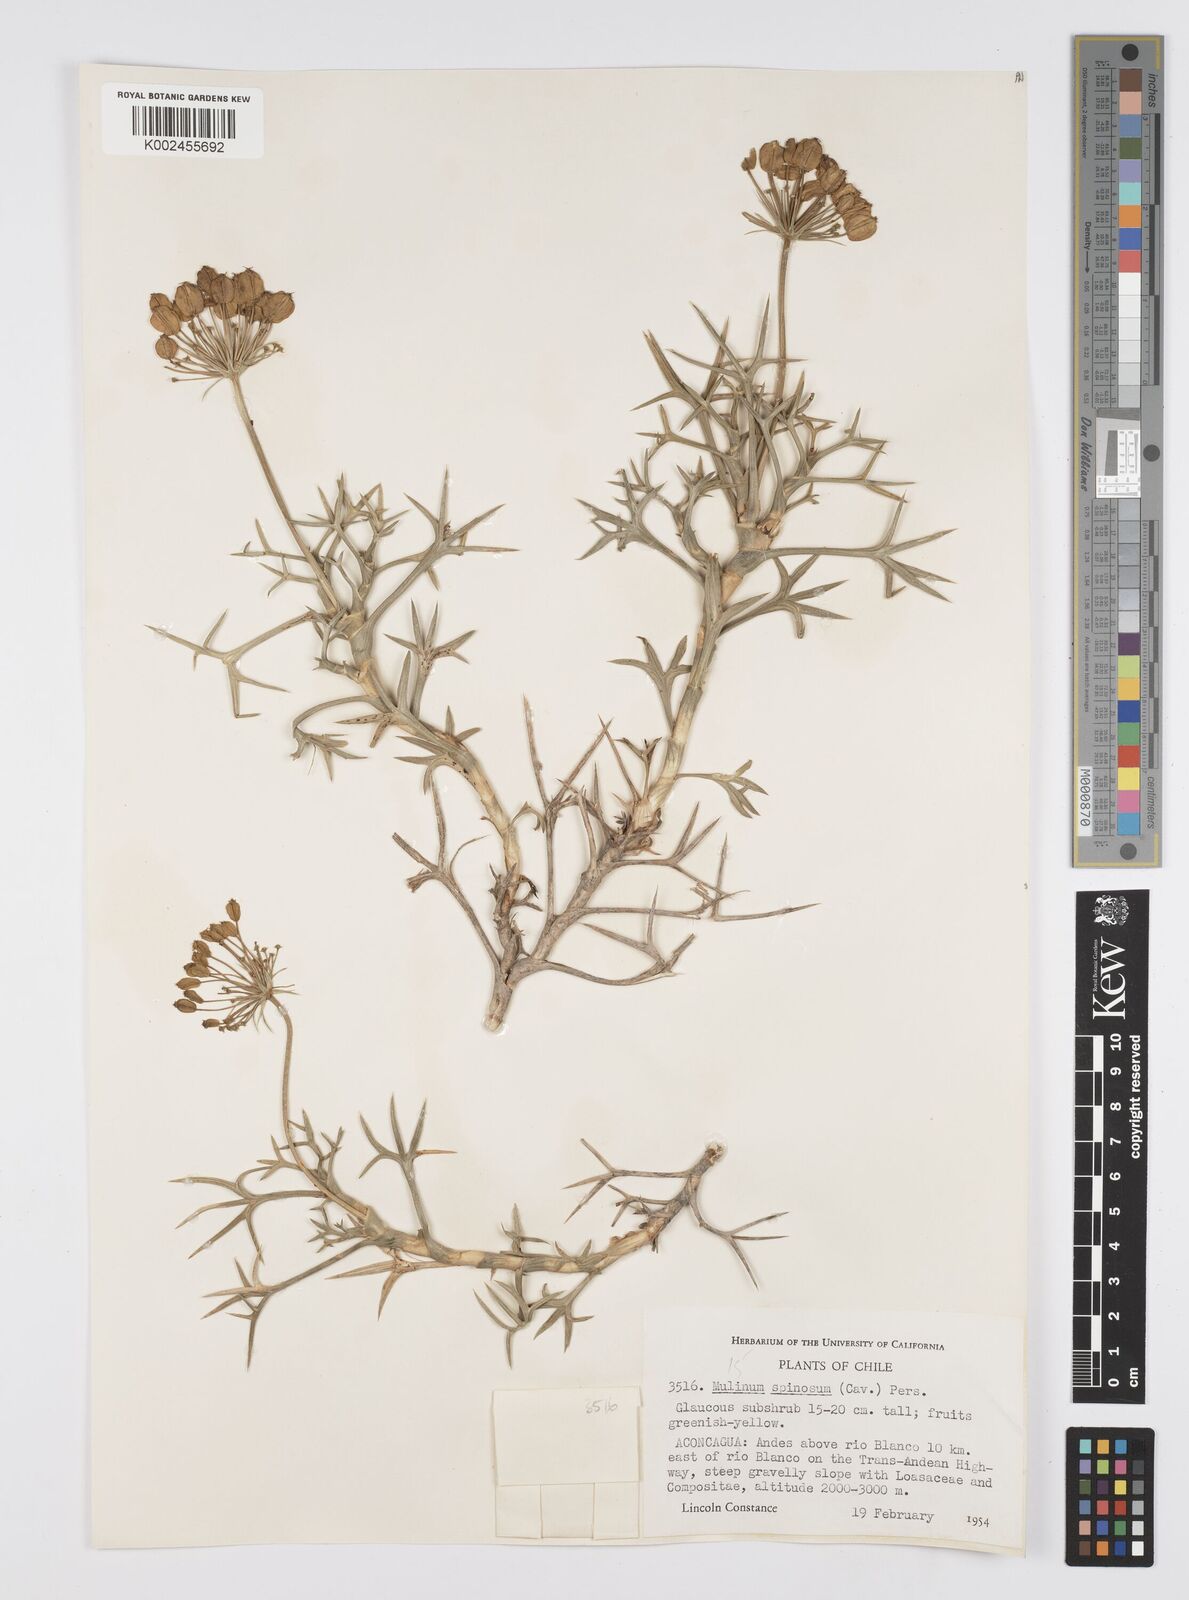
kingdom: Plantae
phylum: Tracheophyta
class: Magnoliopsida
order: Apiales
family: Apiaceae
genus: Azorella
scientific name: Azorella prolifera
